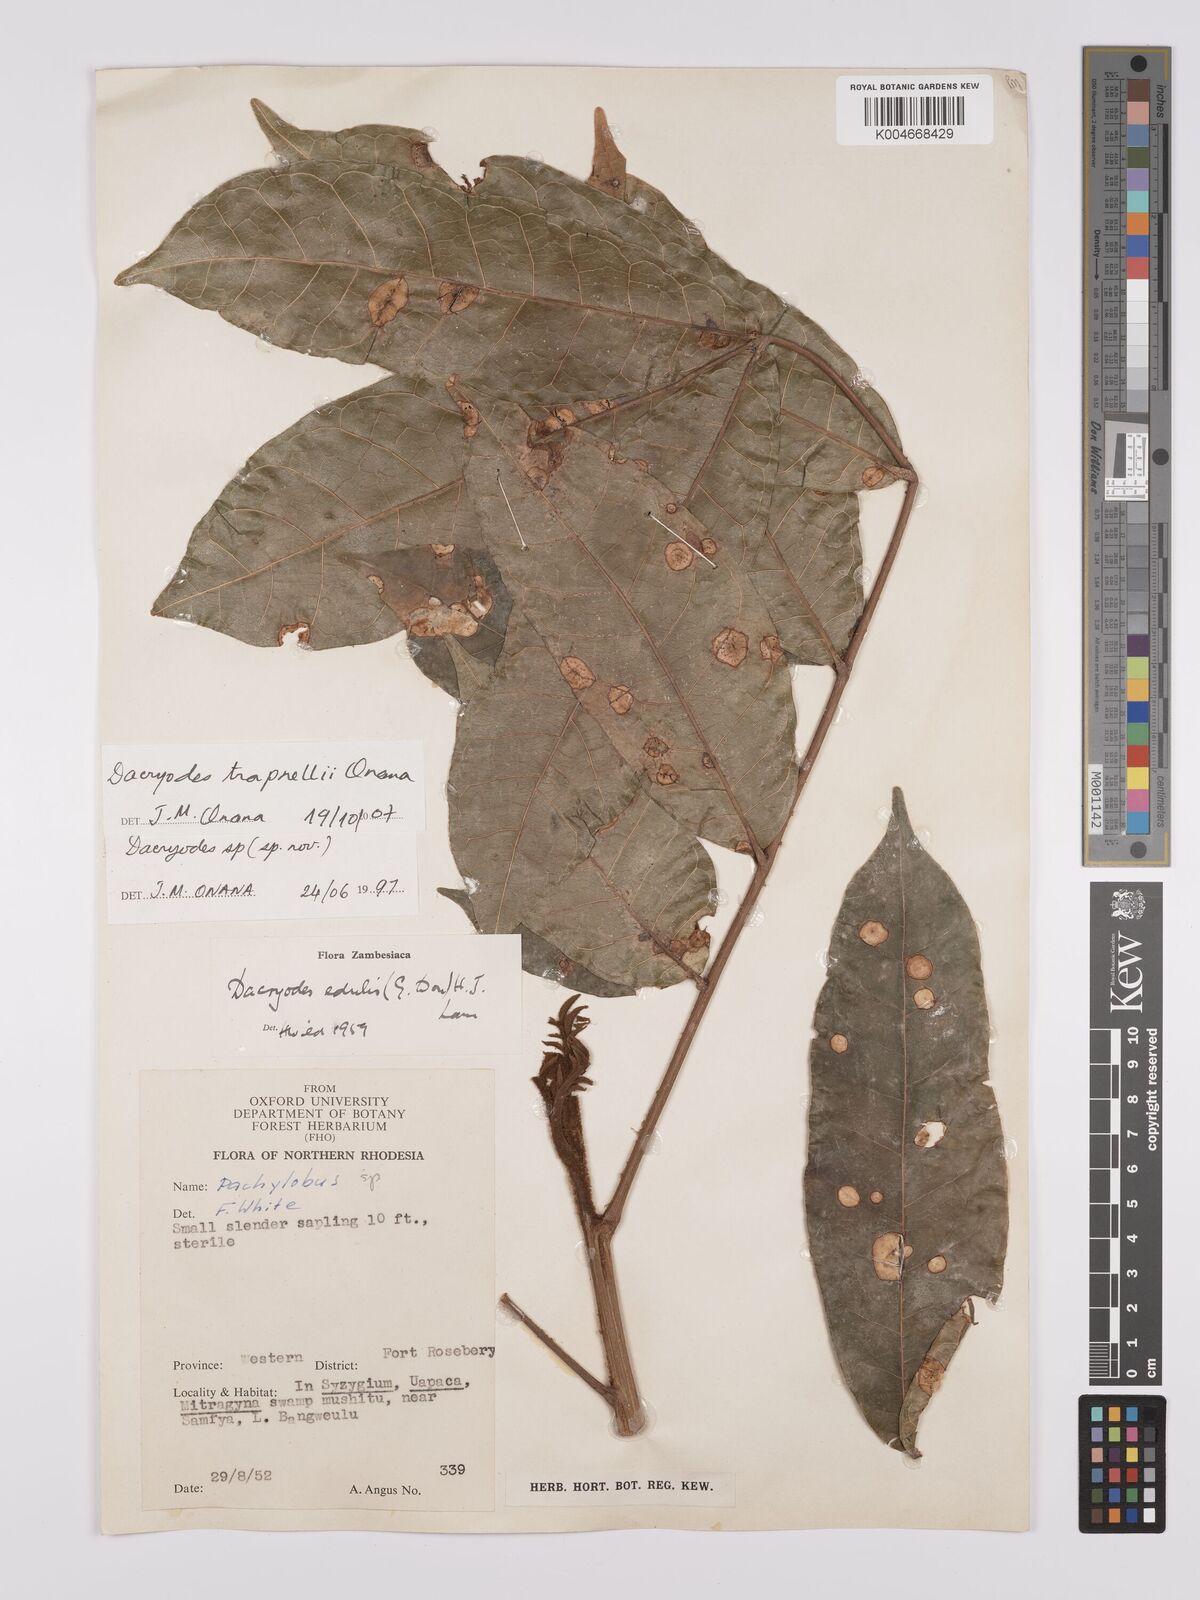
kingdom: Plantae
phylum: Tracheophyta
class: Magnoliopsida
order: Sapindales
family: Burseraceae
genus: Pachylobus
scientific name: Pachylobus trapnellii
